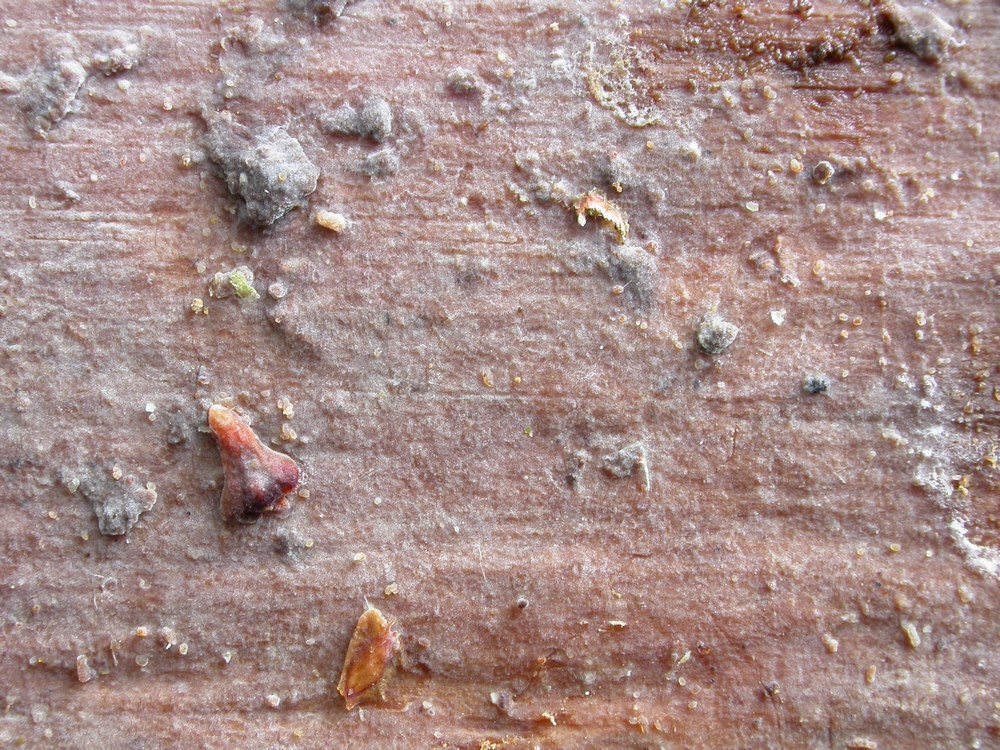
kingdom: Fungi
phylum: Basidiomycota
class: Agaricomycetes
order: Agaricales
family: Radulomycetaceae
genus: Aphanobasidium
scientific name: Aphanobasidium pseudotsugae
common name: tynd naftalinskind
